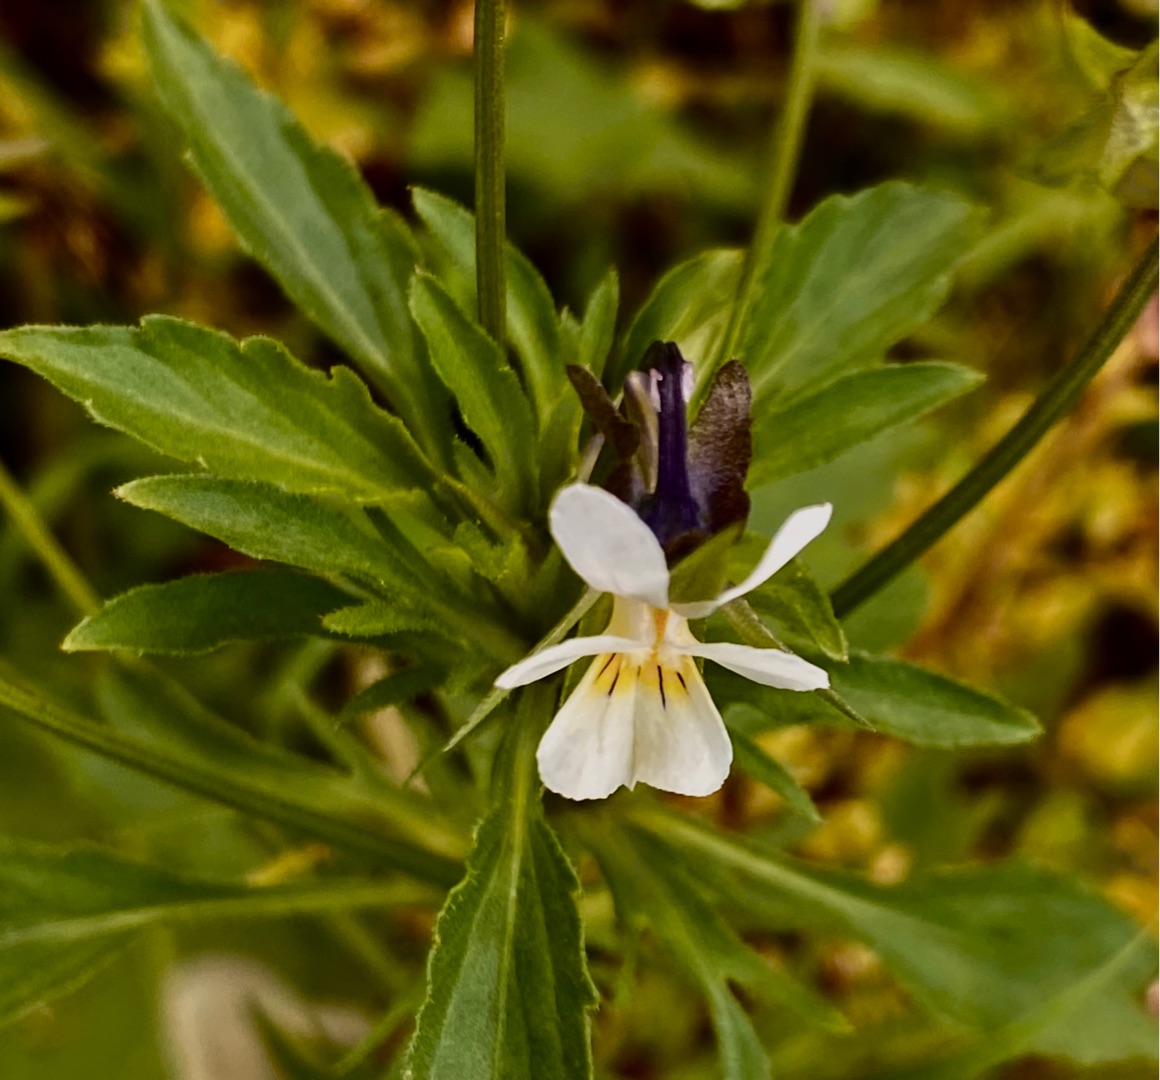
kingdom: Plantae
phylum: Tracheophyta
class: Magnoliopsida
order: Malpighiales
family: Violaceae
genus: Viola
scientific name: Viola arvensis
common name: Ager-stedmoderblomst
